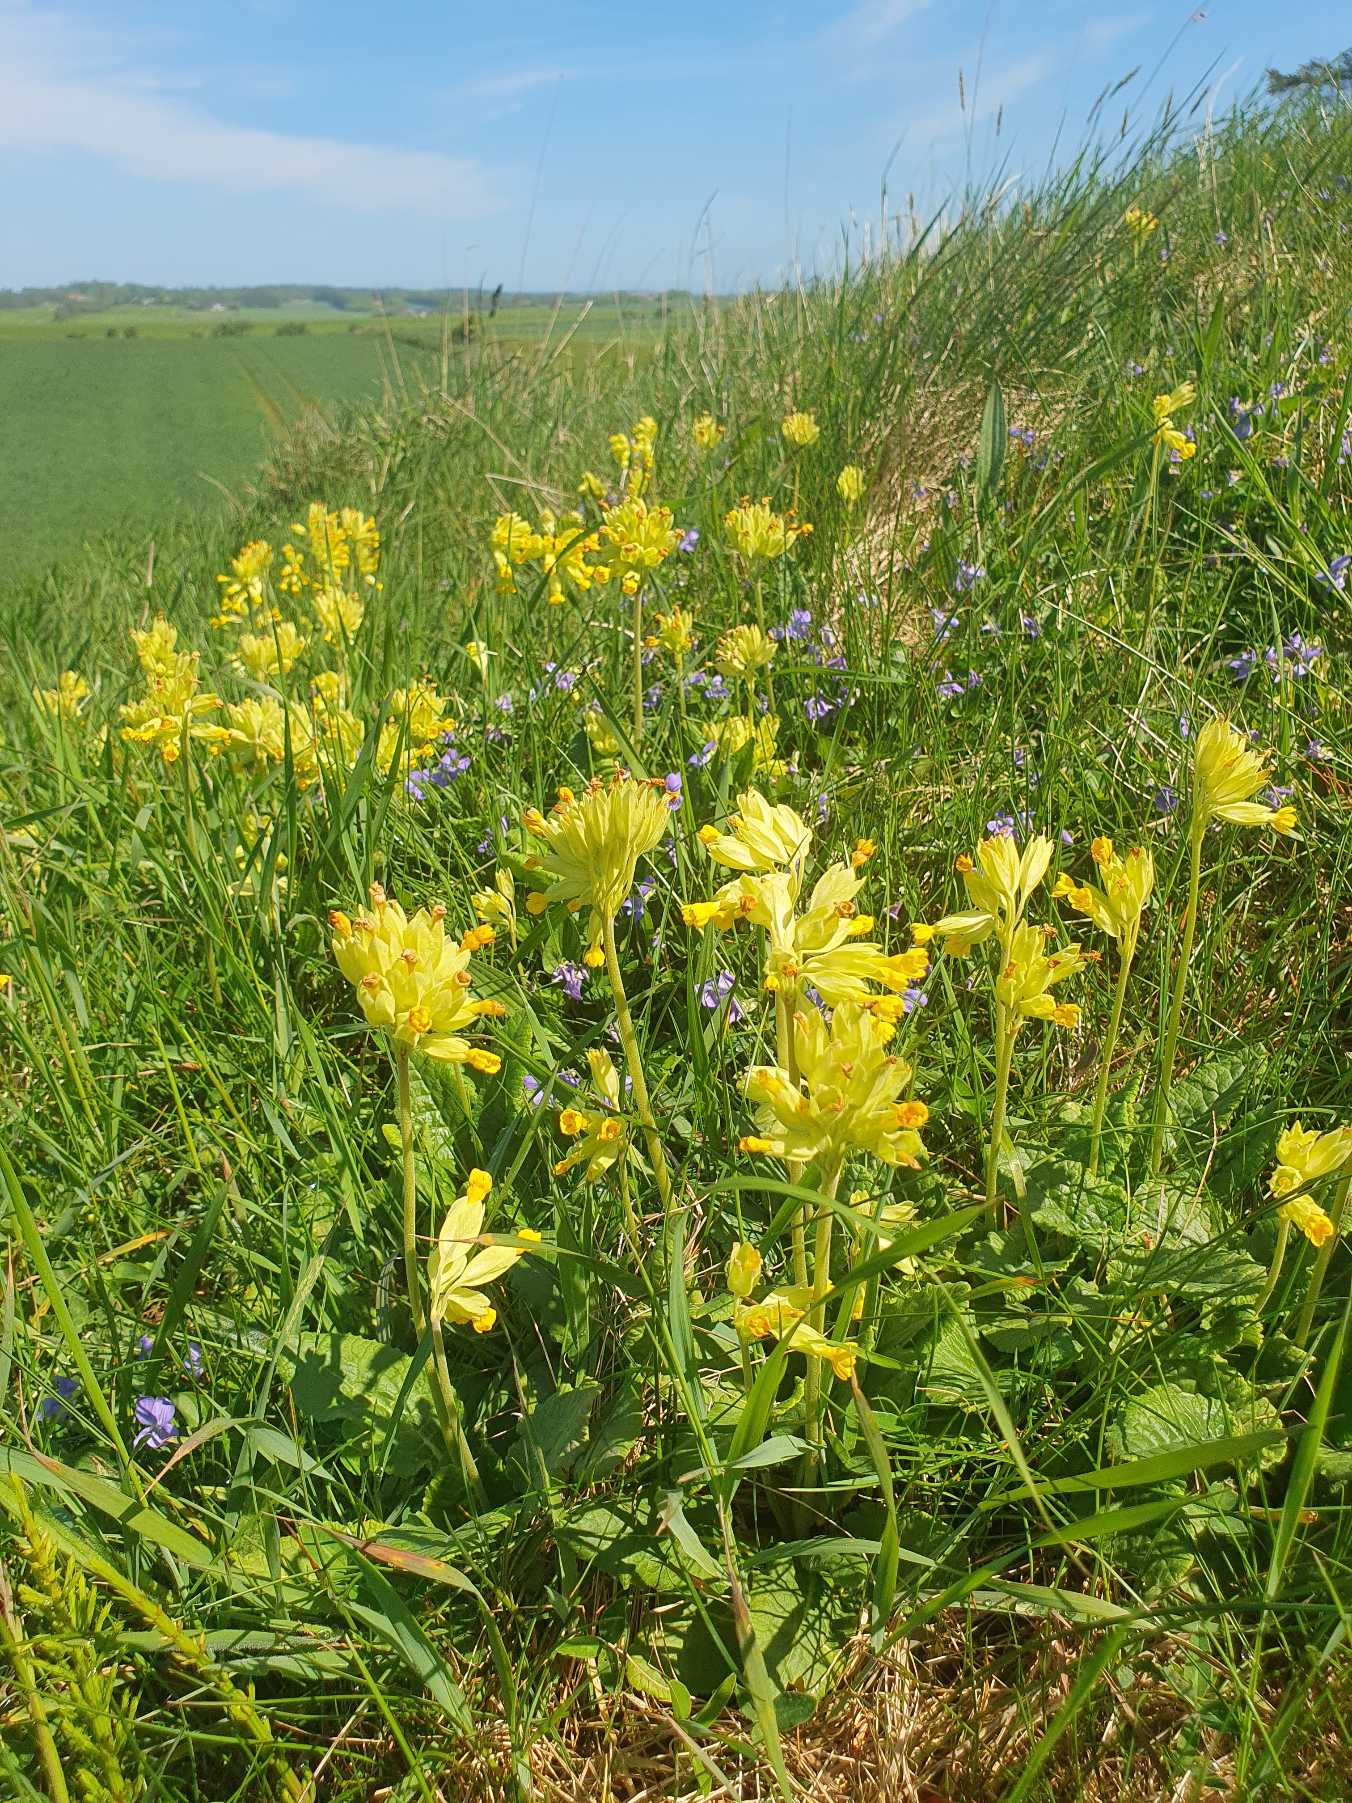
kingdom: Plantae
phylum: Tracheophyta
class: Magnoliopsida
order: Ericales
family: Primulaceae
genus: Primula
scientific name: Primula veris
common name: Hulkravet kodriver
